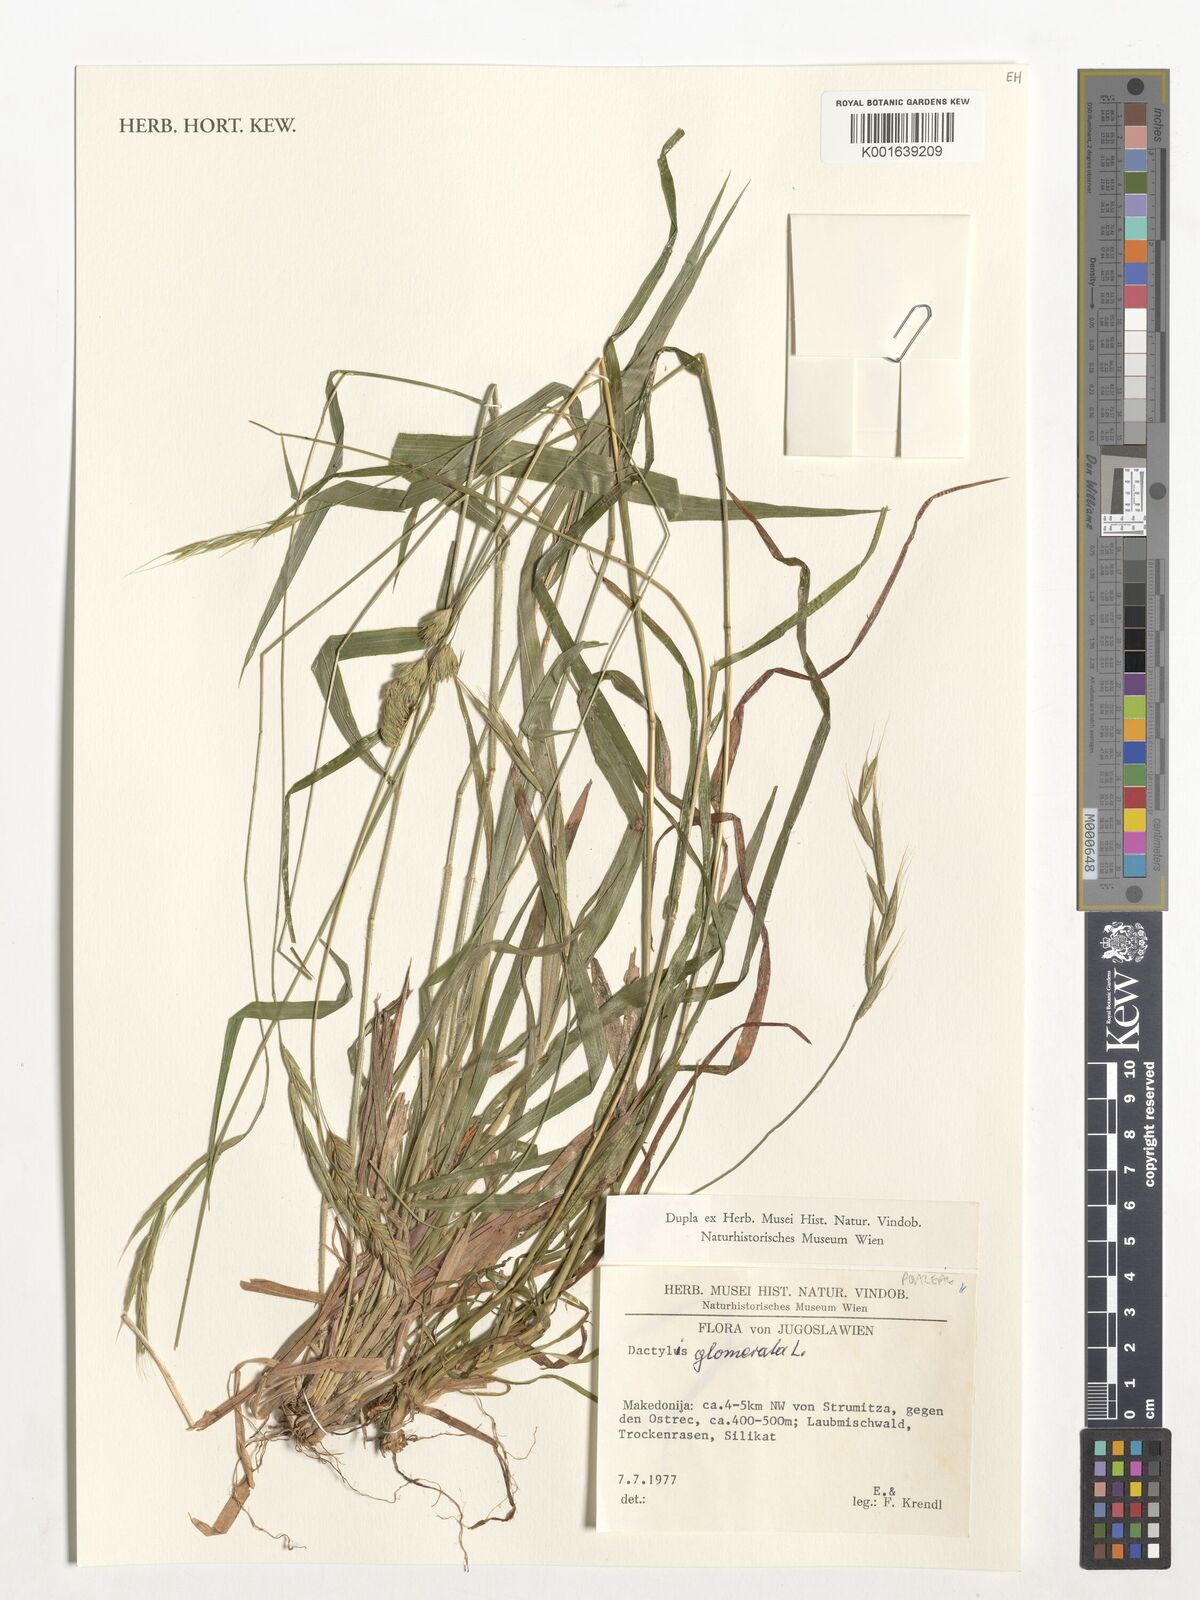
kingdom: Plantae
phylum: Tracheophyta
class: Liliopsida
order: Poales
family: Poaceae
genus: Dactylis
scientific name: Dactylis glomerata
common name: Orchardgrass
